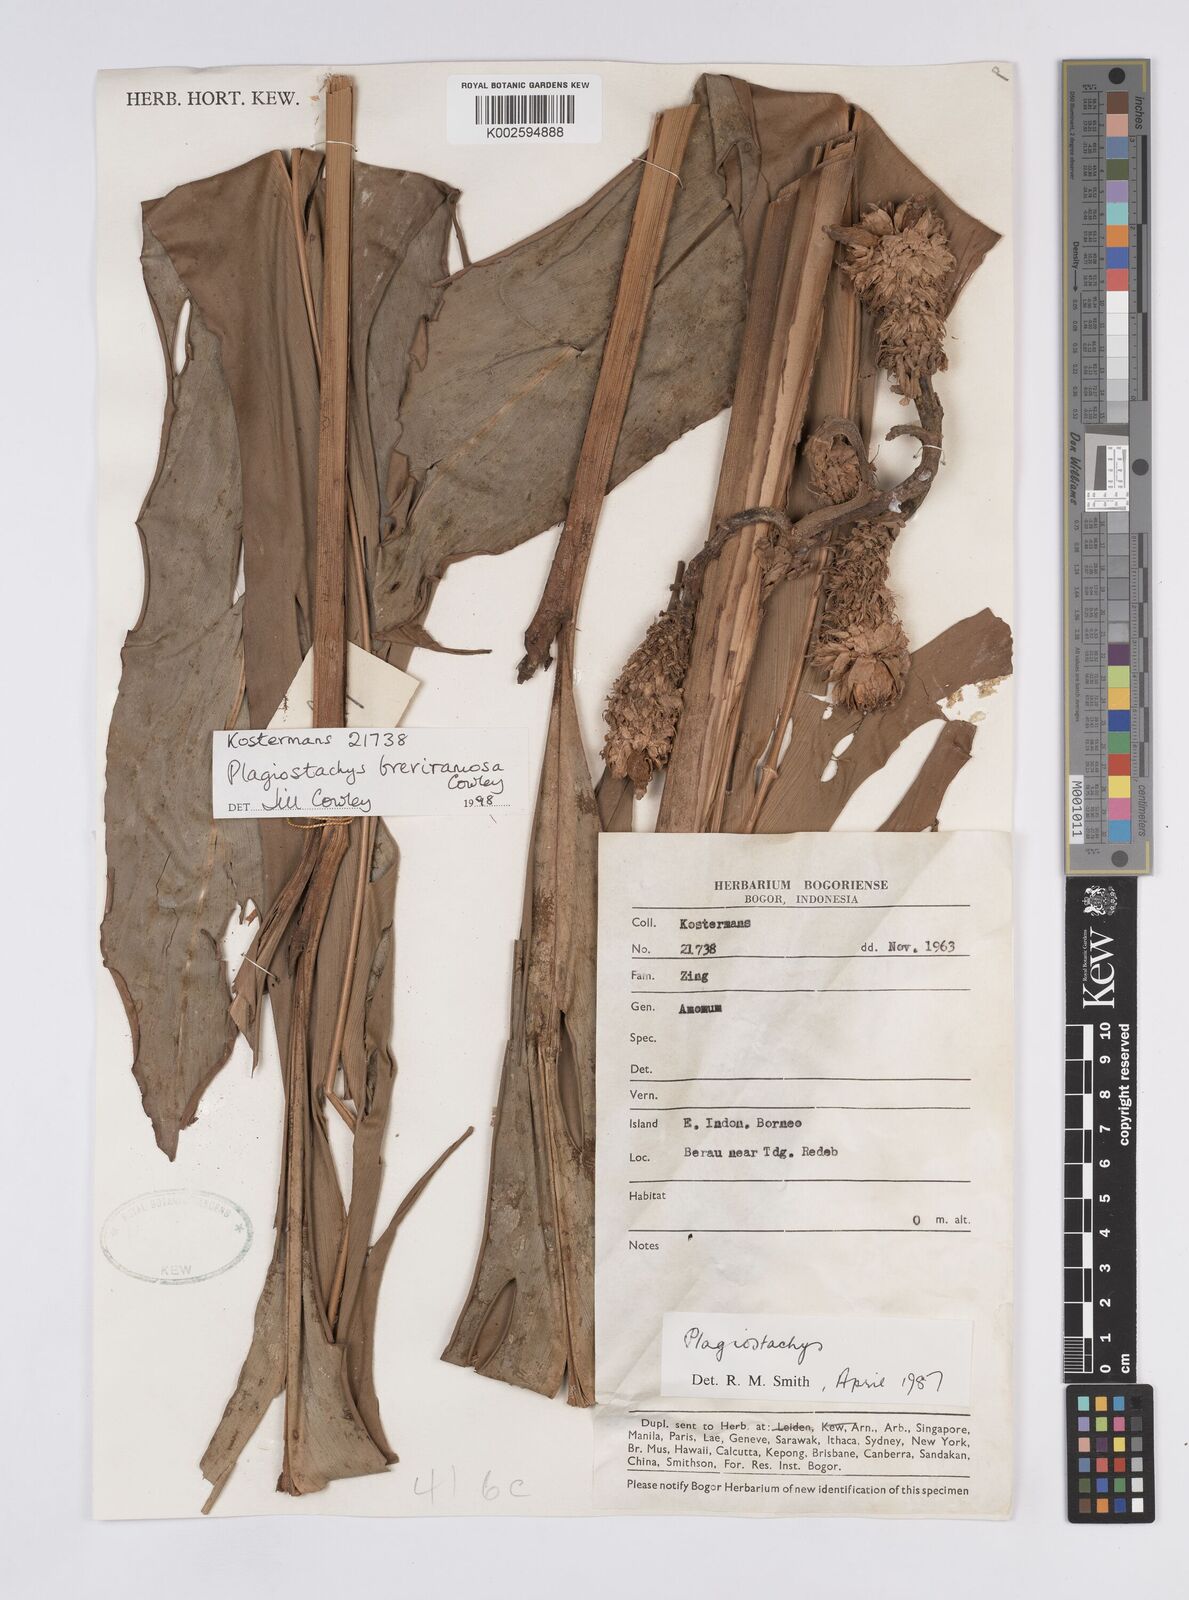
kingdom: Plantae
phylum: Tracheophyta
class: Liliopsida
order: Zingiberales
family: Zingiberaceae
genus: Plagiostachys
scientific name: Plagiostachys breviramosa
